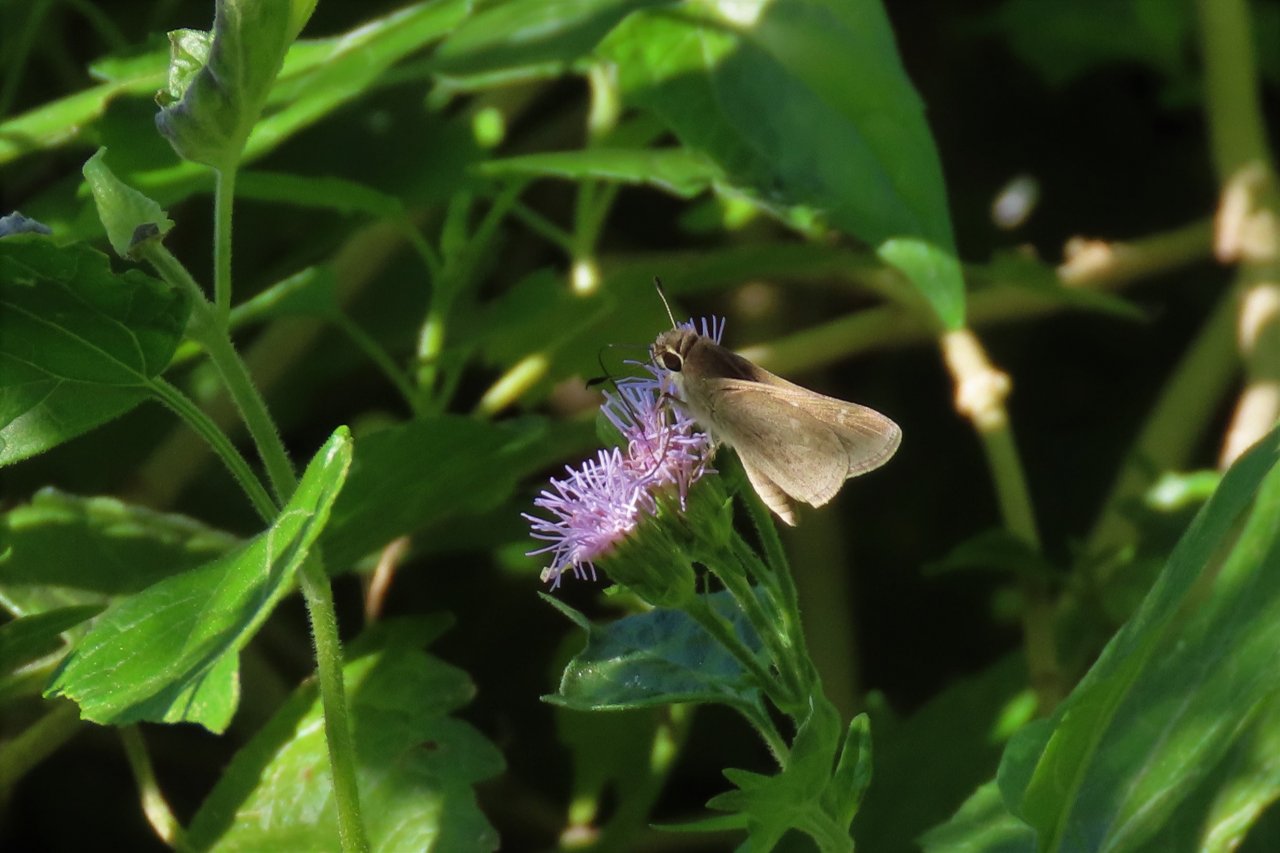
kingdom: Animalia
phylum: Arthropoda
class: Insecta
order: Lepidoptera
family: Hesperiidae
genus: Lerodea
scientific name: Lerodea eufala
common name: Eufala Skipper
